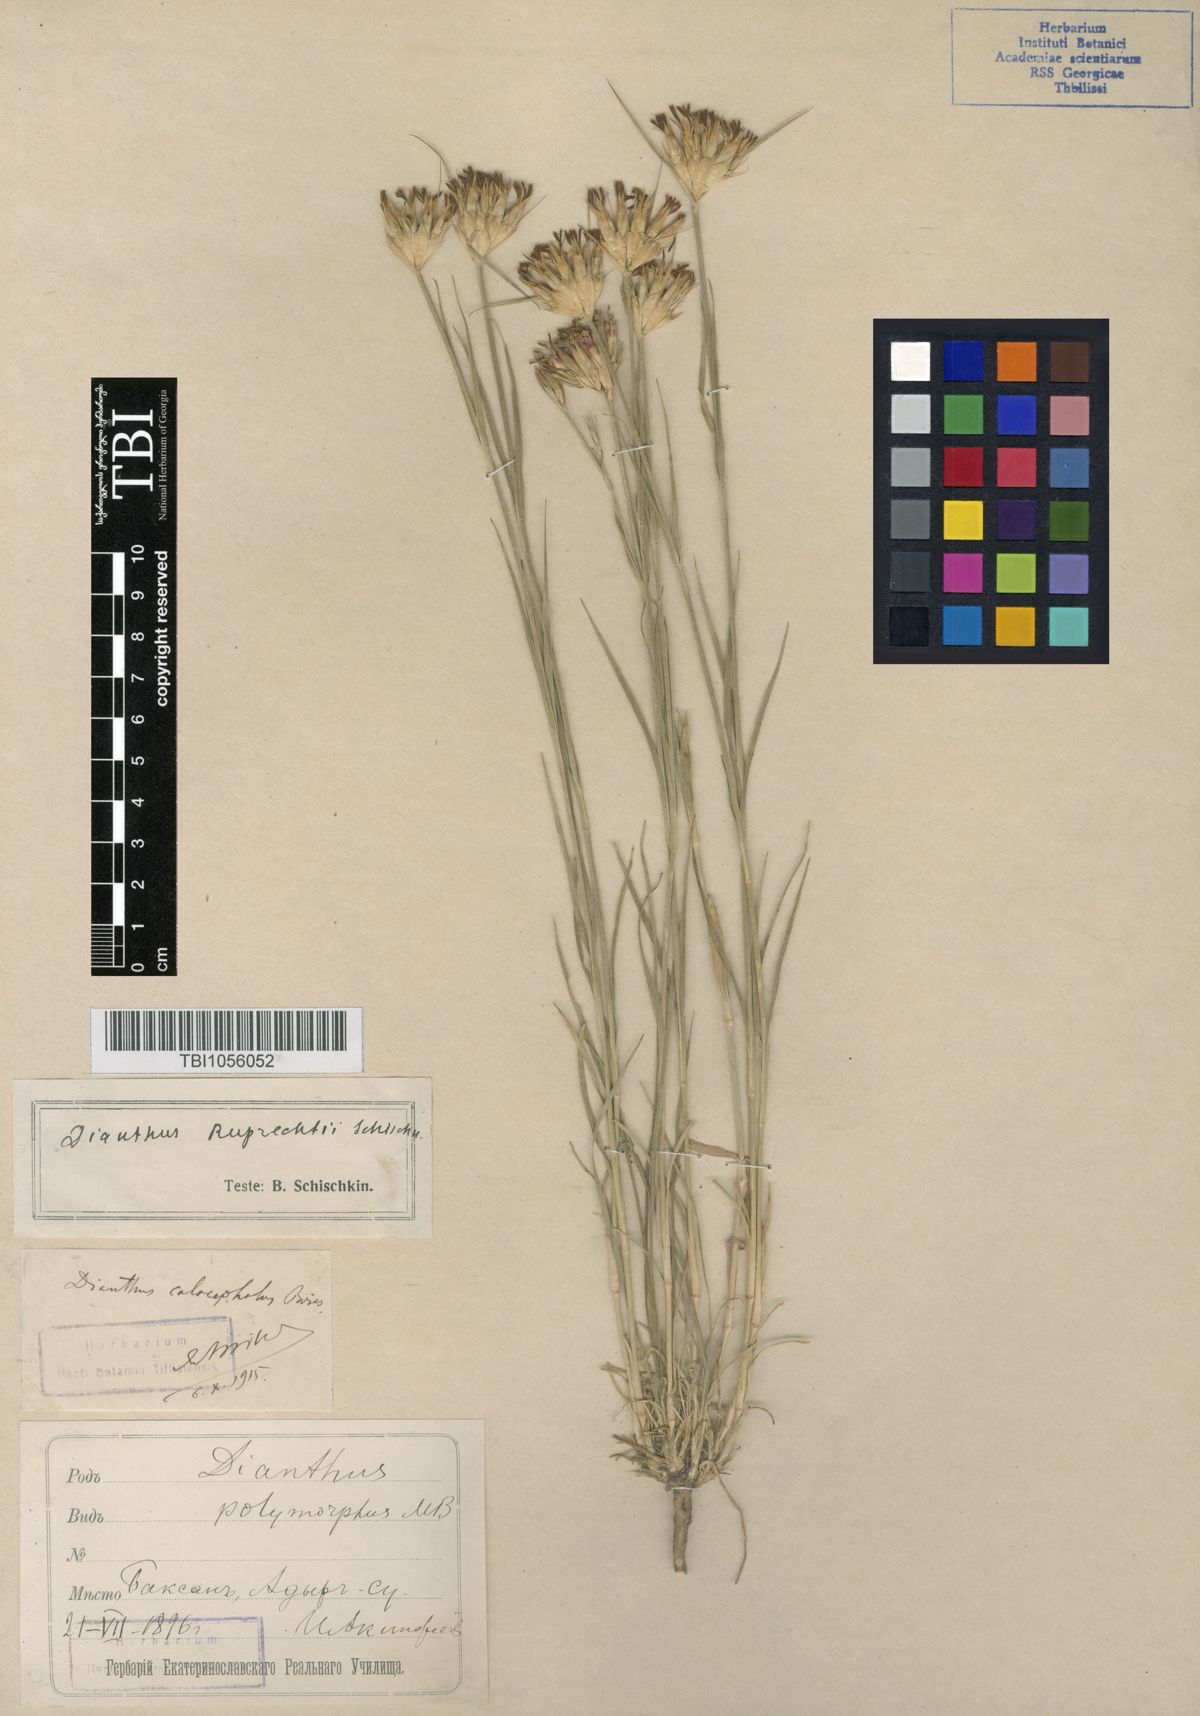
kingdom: Plantae
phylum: Tracheophyta
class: Magnoliopsida
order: Caryophyllales
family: Caryophyllaceae
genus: Dianthus
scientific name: Dianthus ruprechtii
